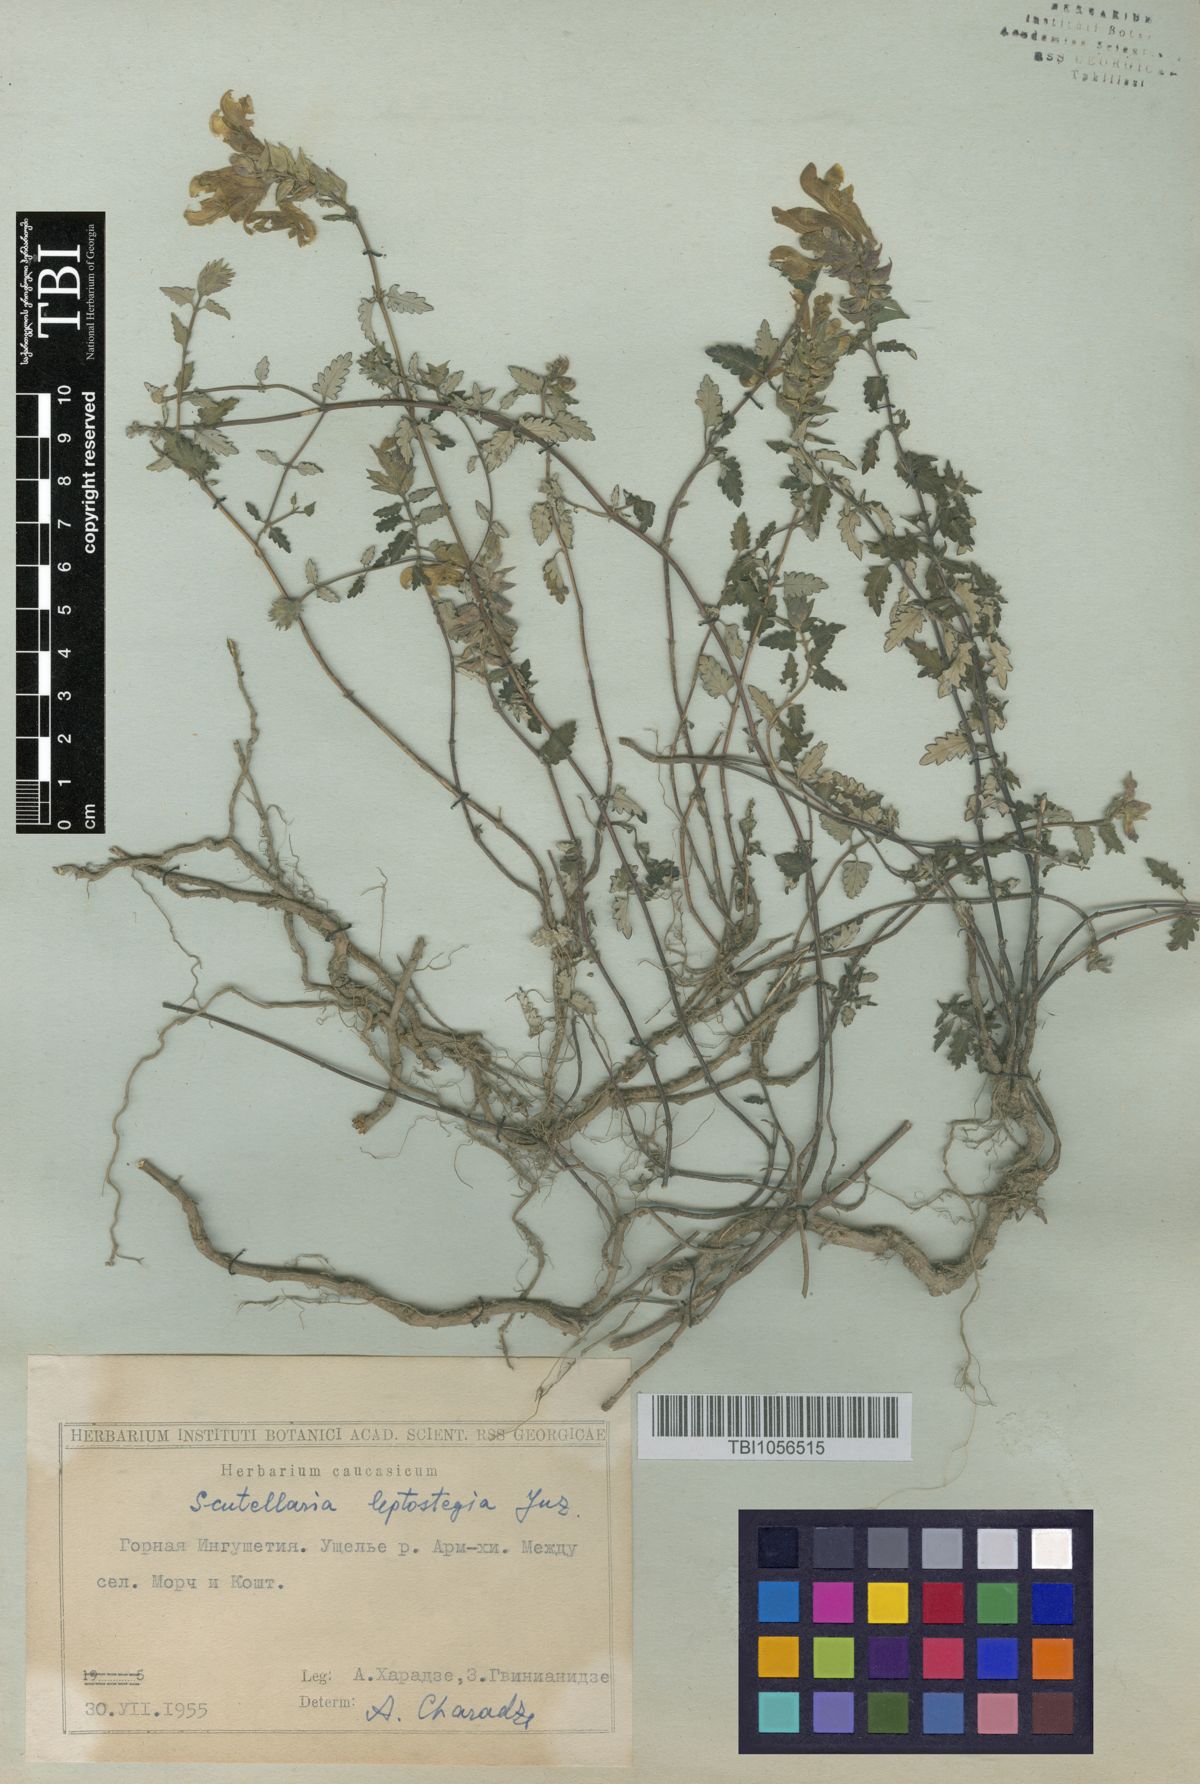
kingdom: Plantae
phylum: Tracheophyta
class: Magnoliopsida
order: Lamiales
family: Lamiaceae
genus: Scutellaria
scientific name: Scutellaria leptostegia
